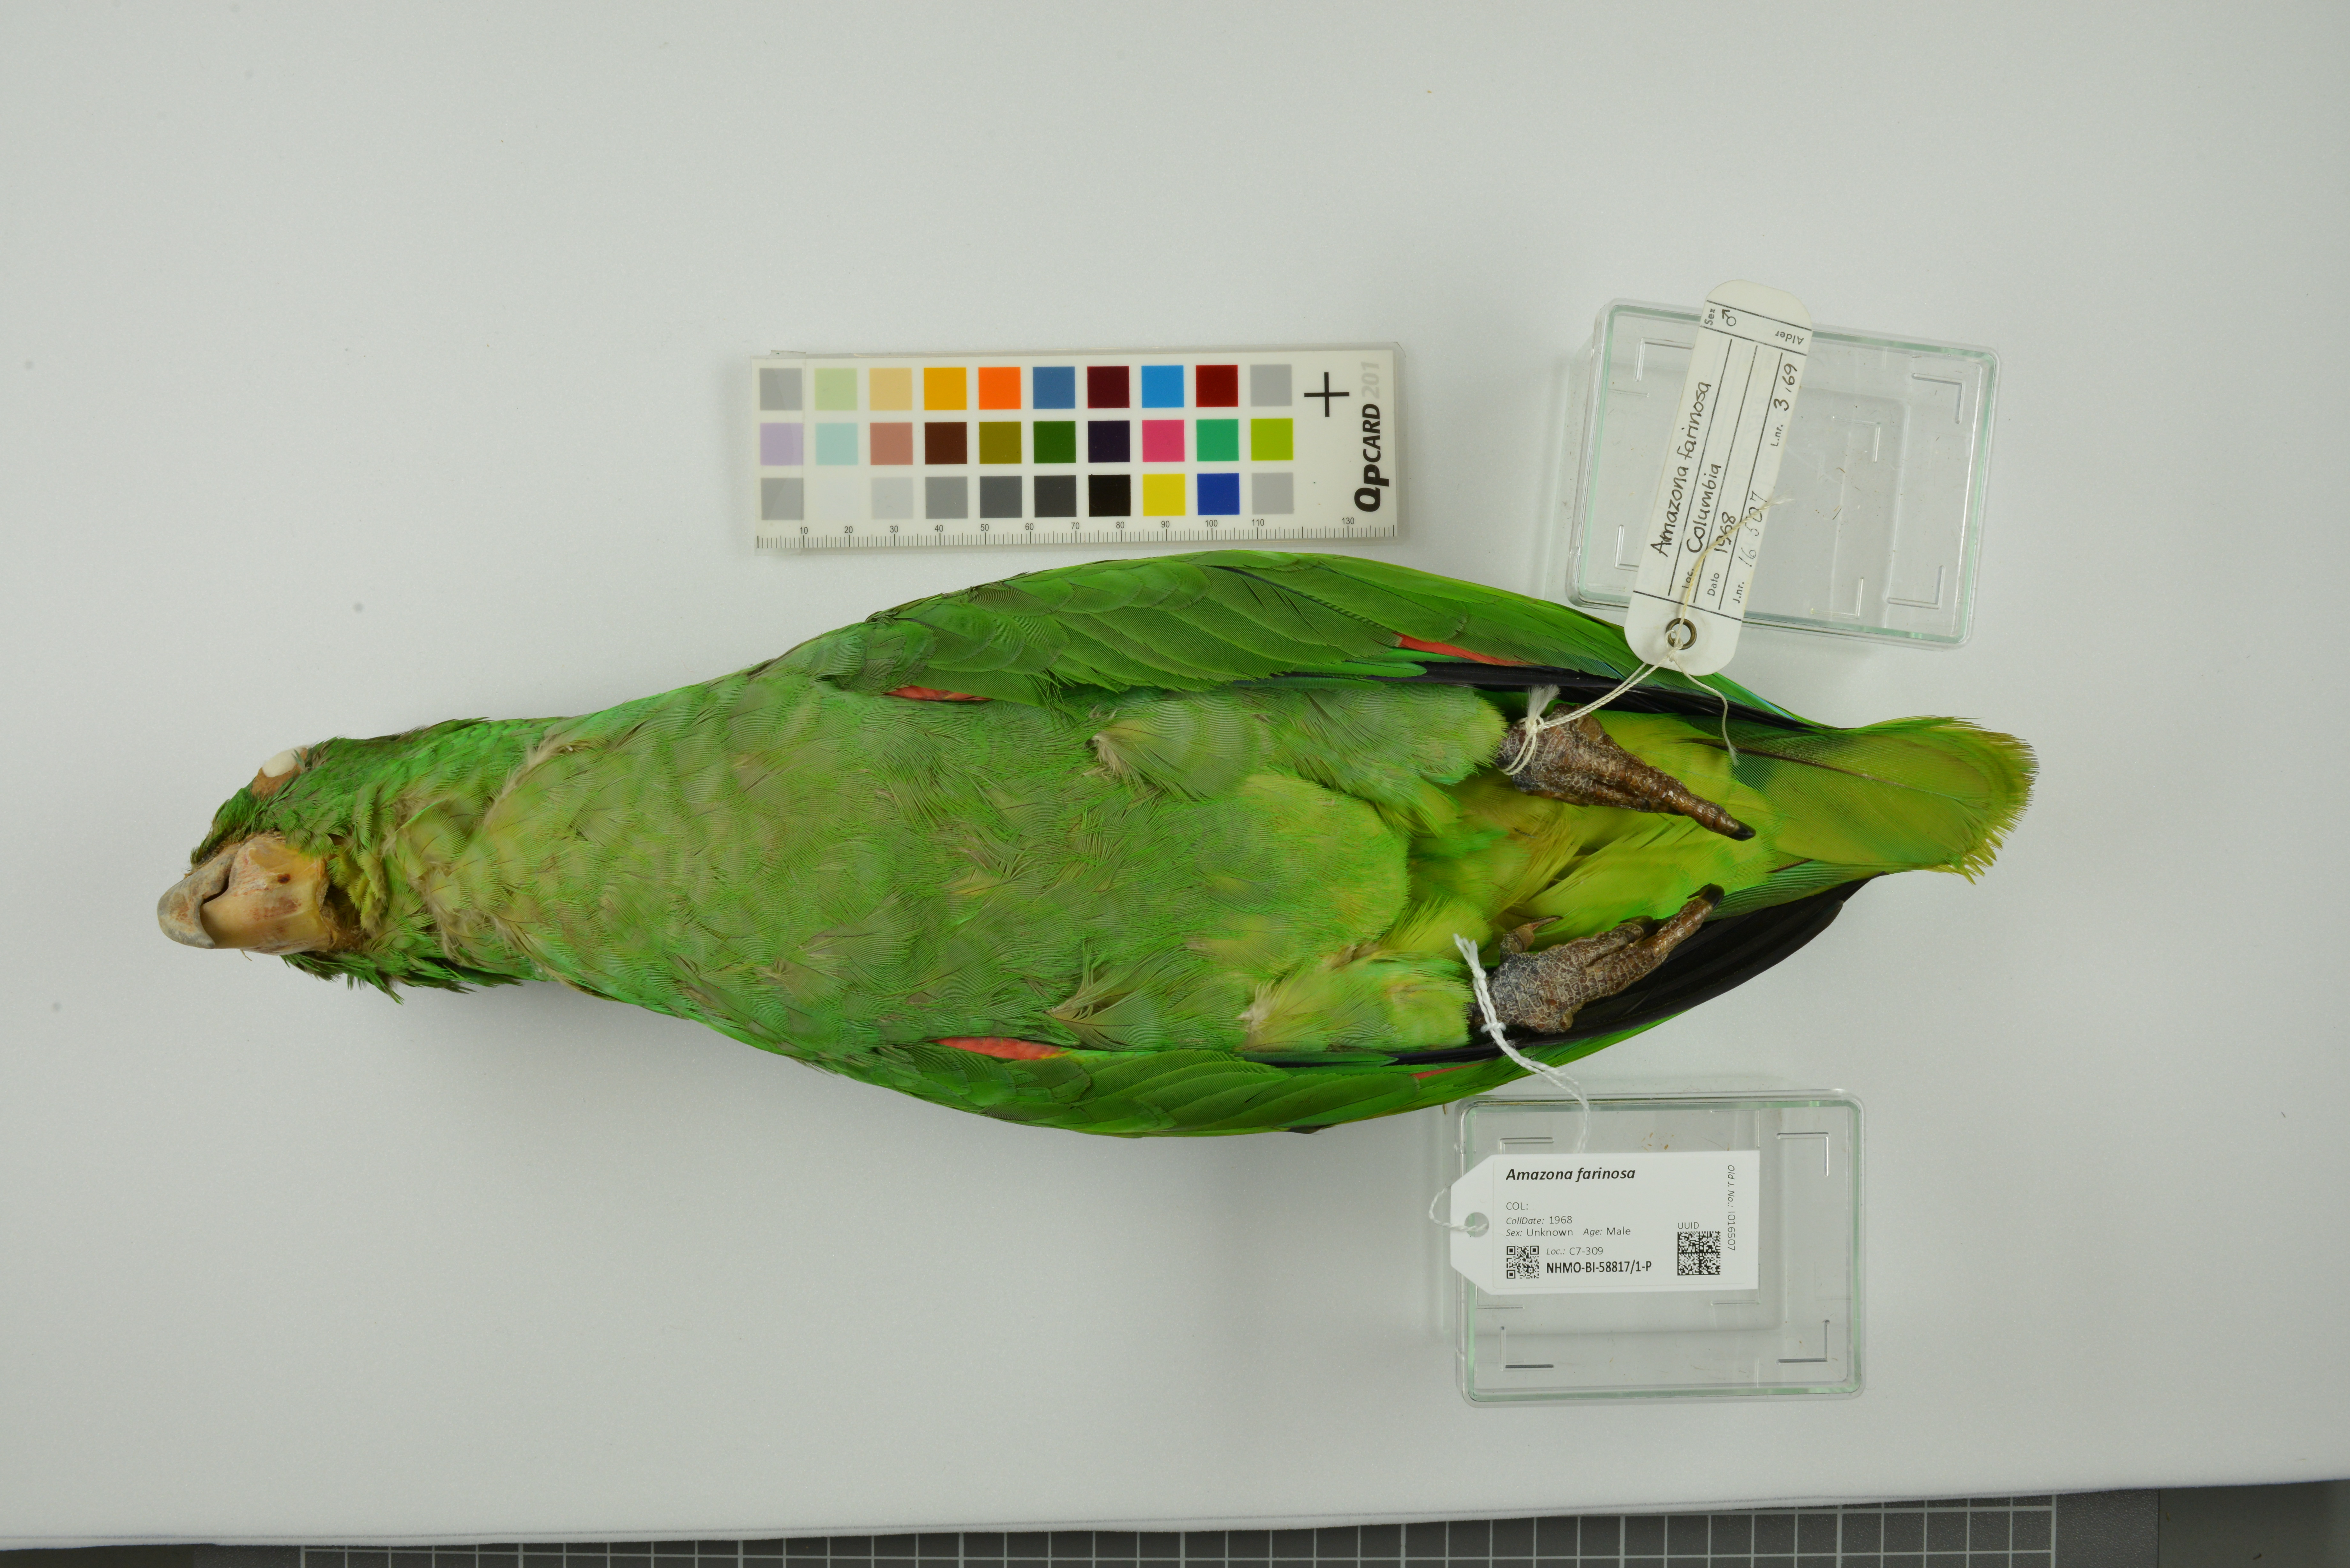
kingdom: Animalia
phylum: Chordata
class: Aves
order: Psittaciformes
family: Psittacidae
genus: Amazona
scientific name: Amazona farinosa
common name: Mealy parrot
